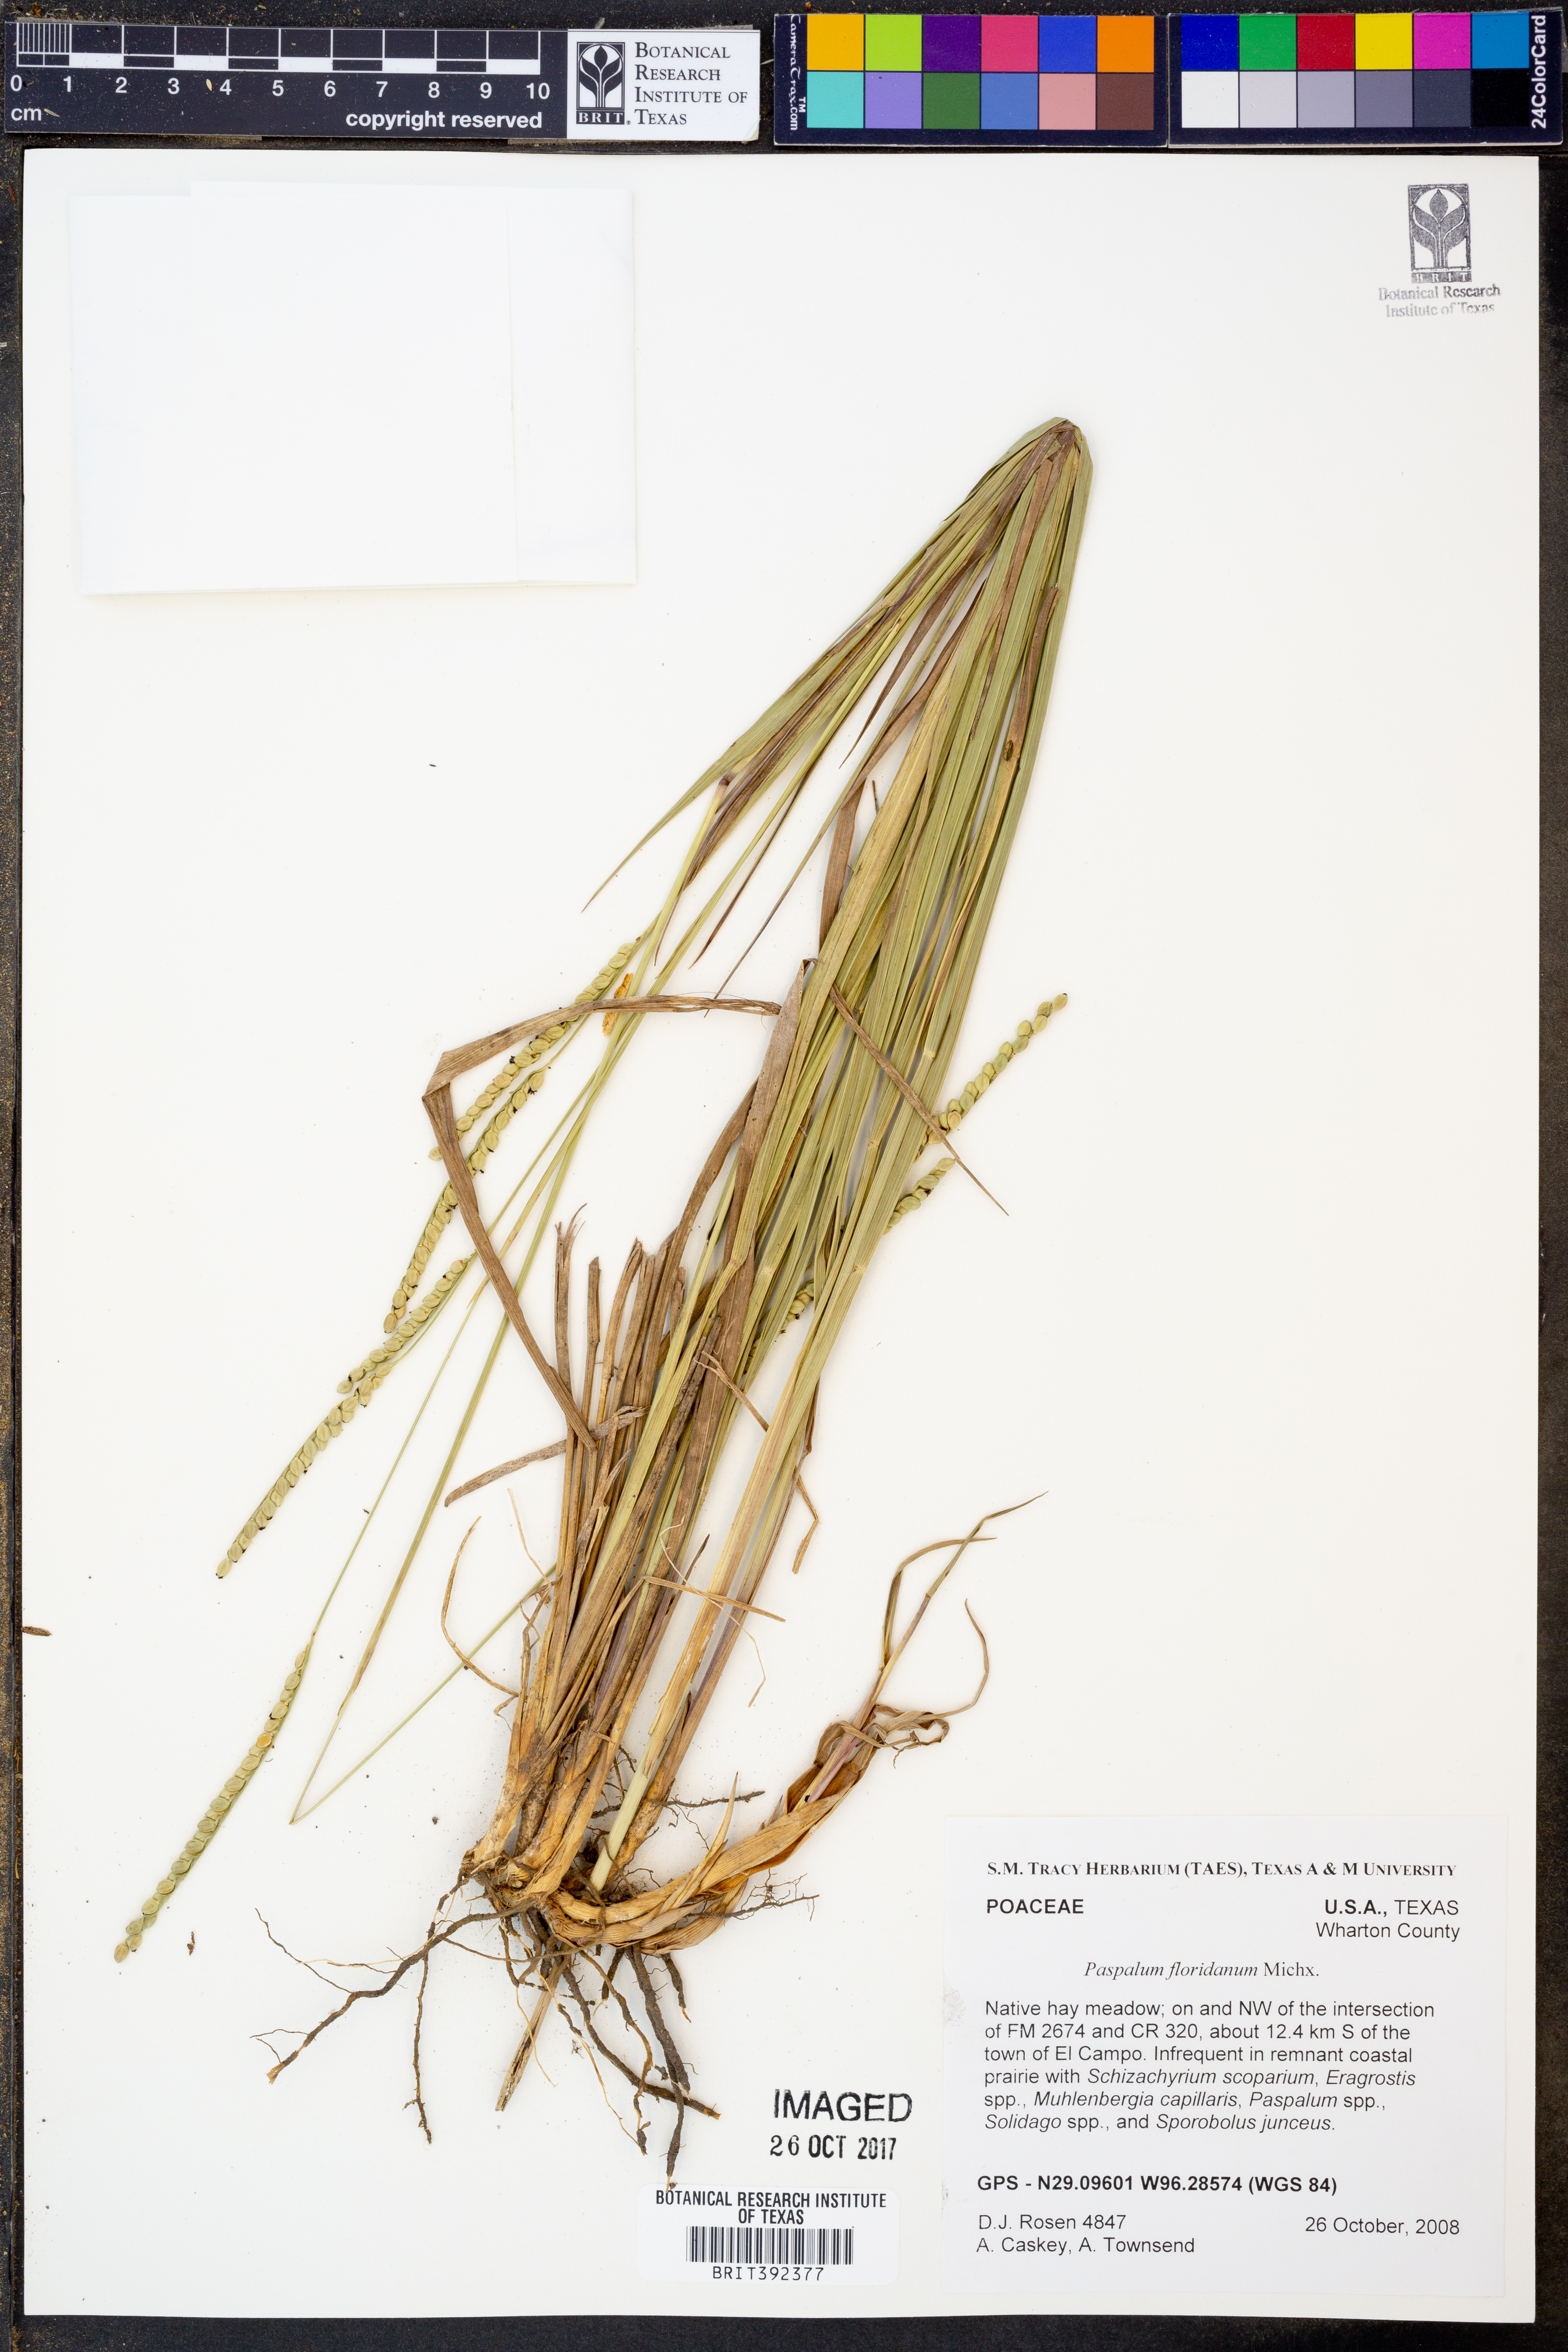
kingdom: Plantae
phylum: Tracheophyta
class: Liliopsida
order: Poales
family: Poaceae
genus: Paspalum
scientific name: Paspalum floridanum
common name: Florida paspalum
